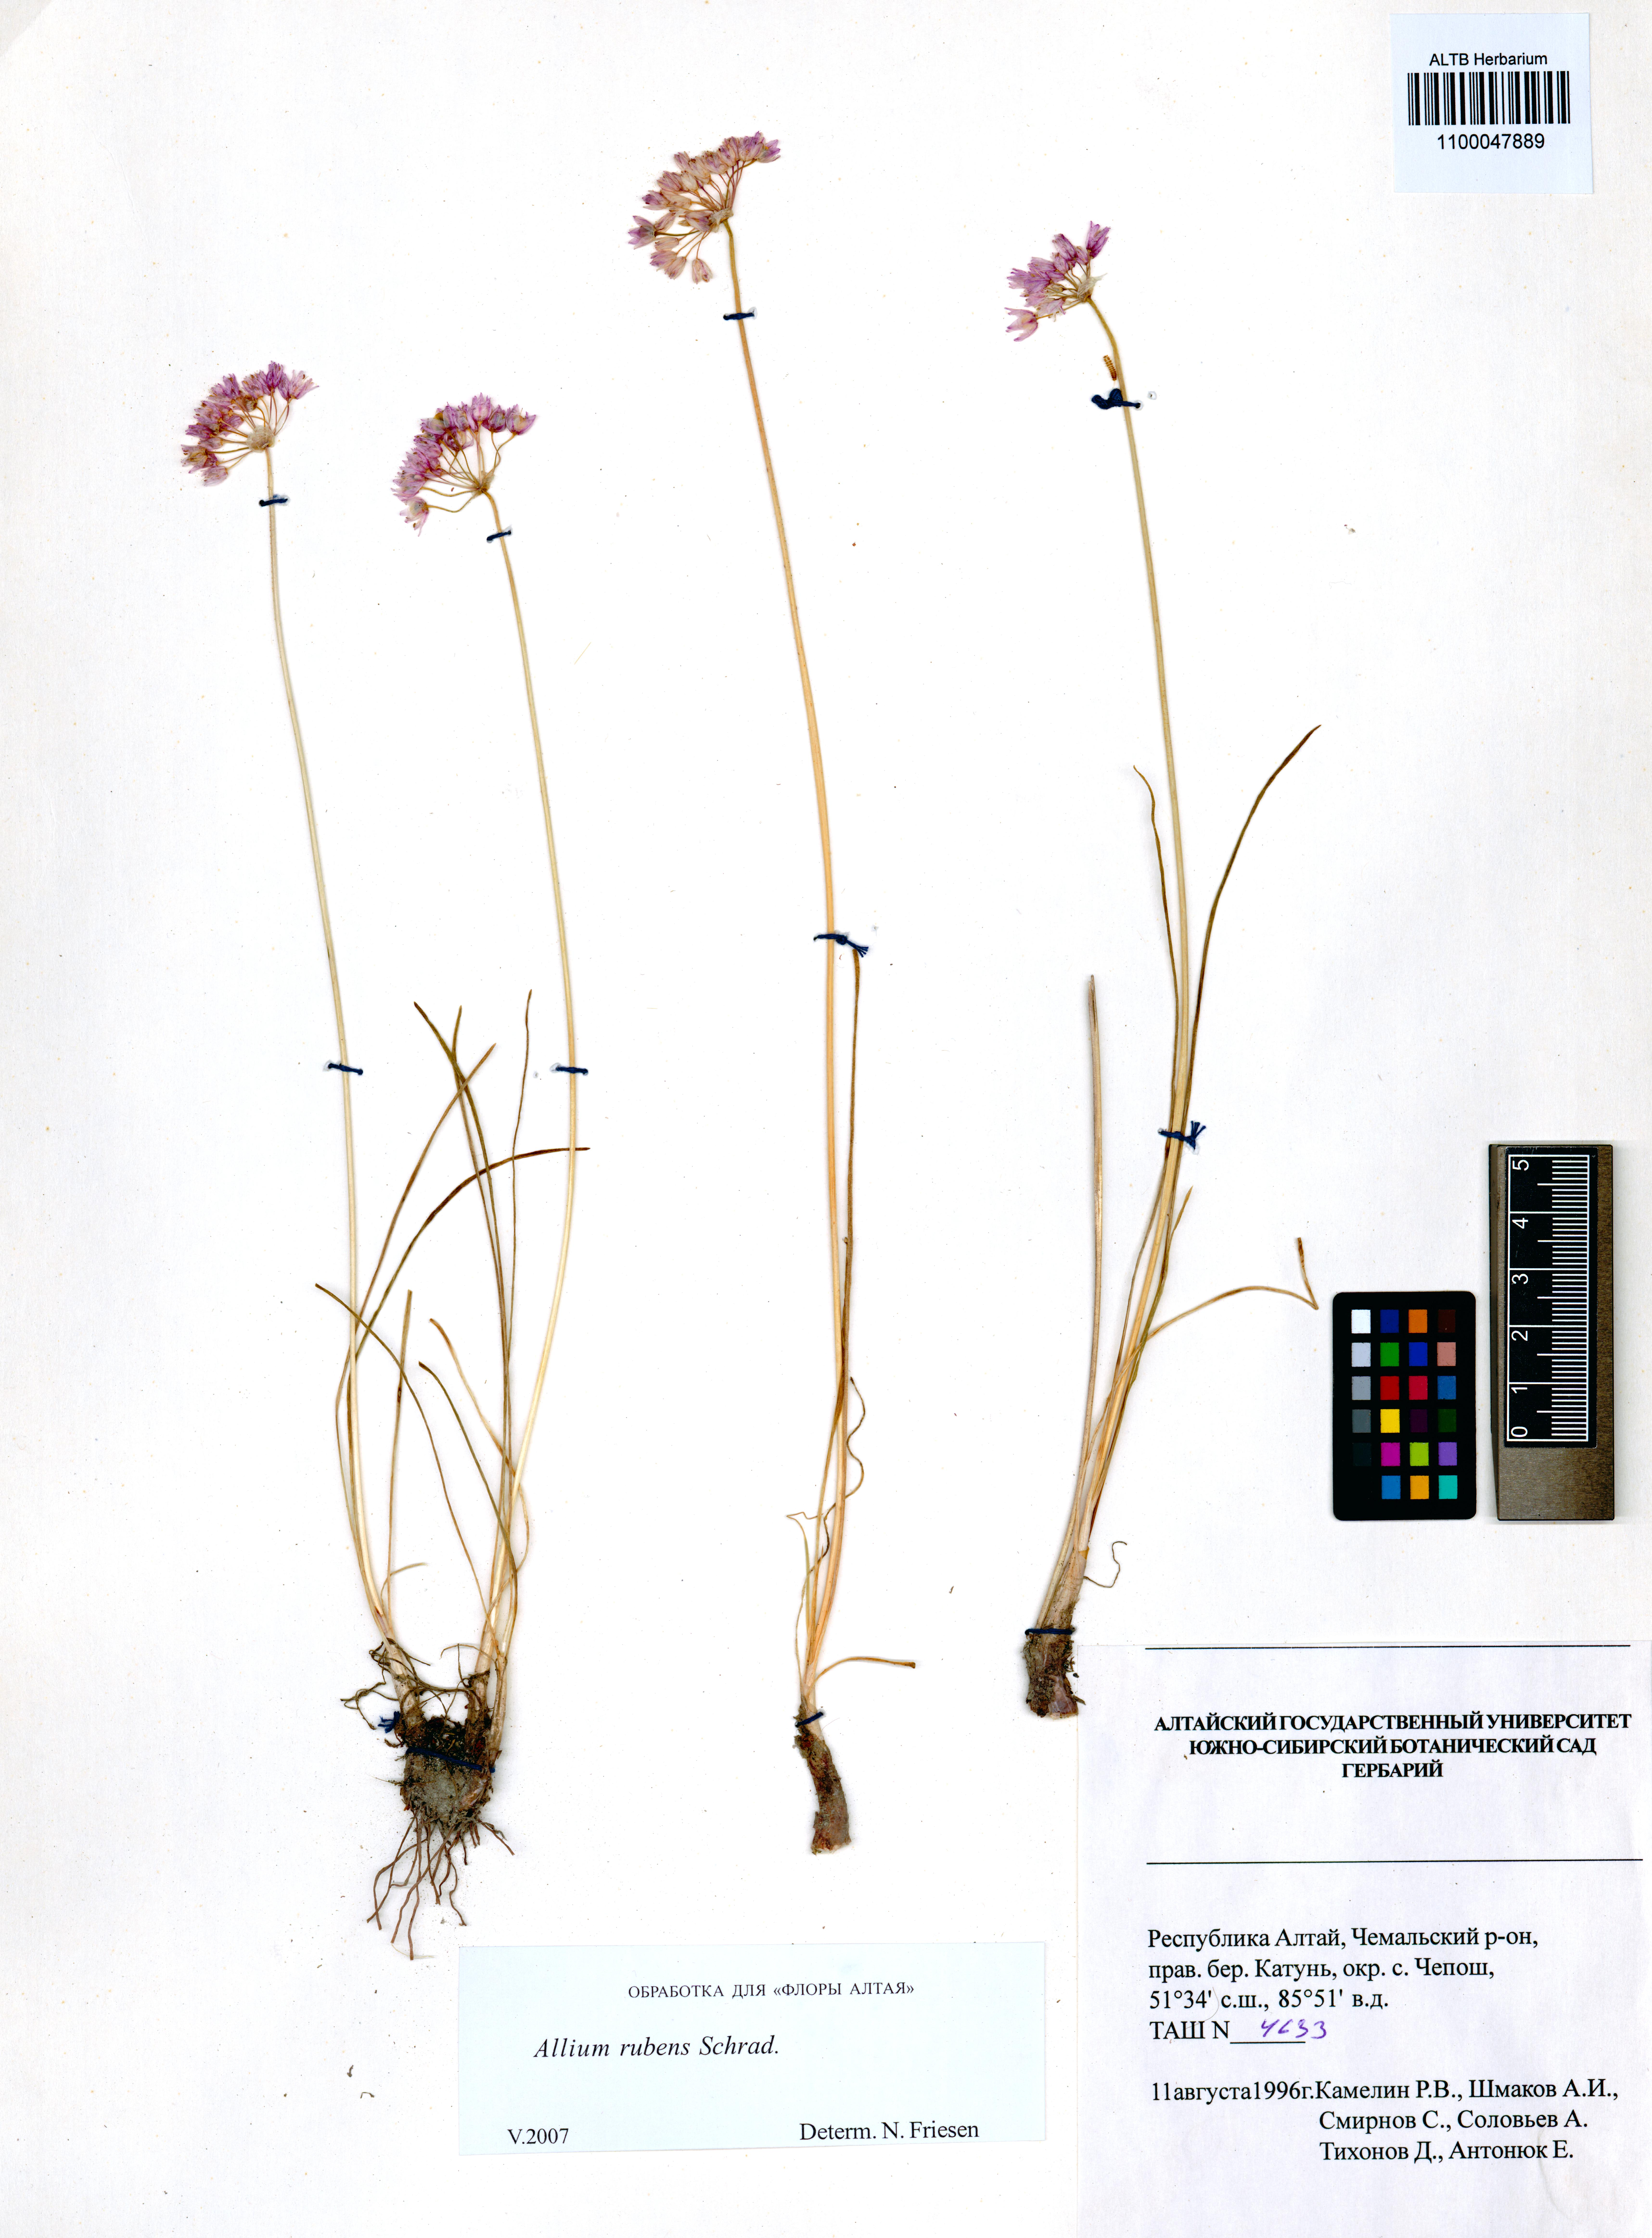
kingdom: Plantae
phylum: Tracheophyta
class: Liliopsida
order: Asparagales
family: Amaryllidaceae
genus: Allium
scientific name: Allium rubens
